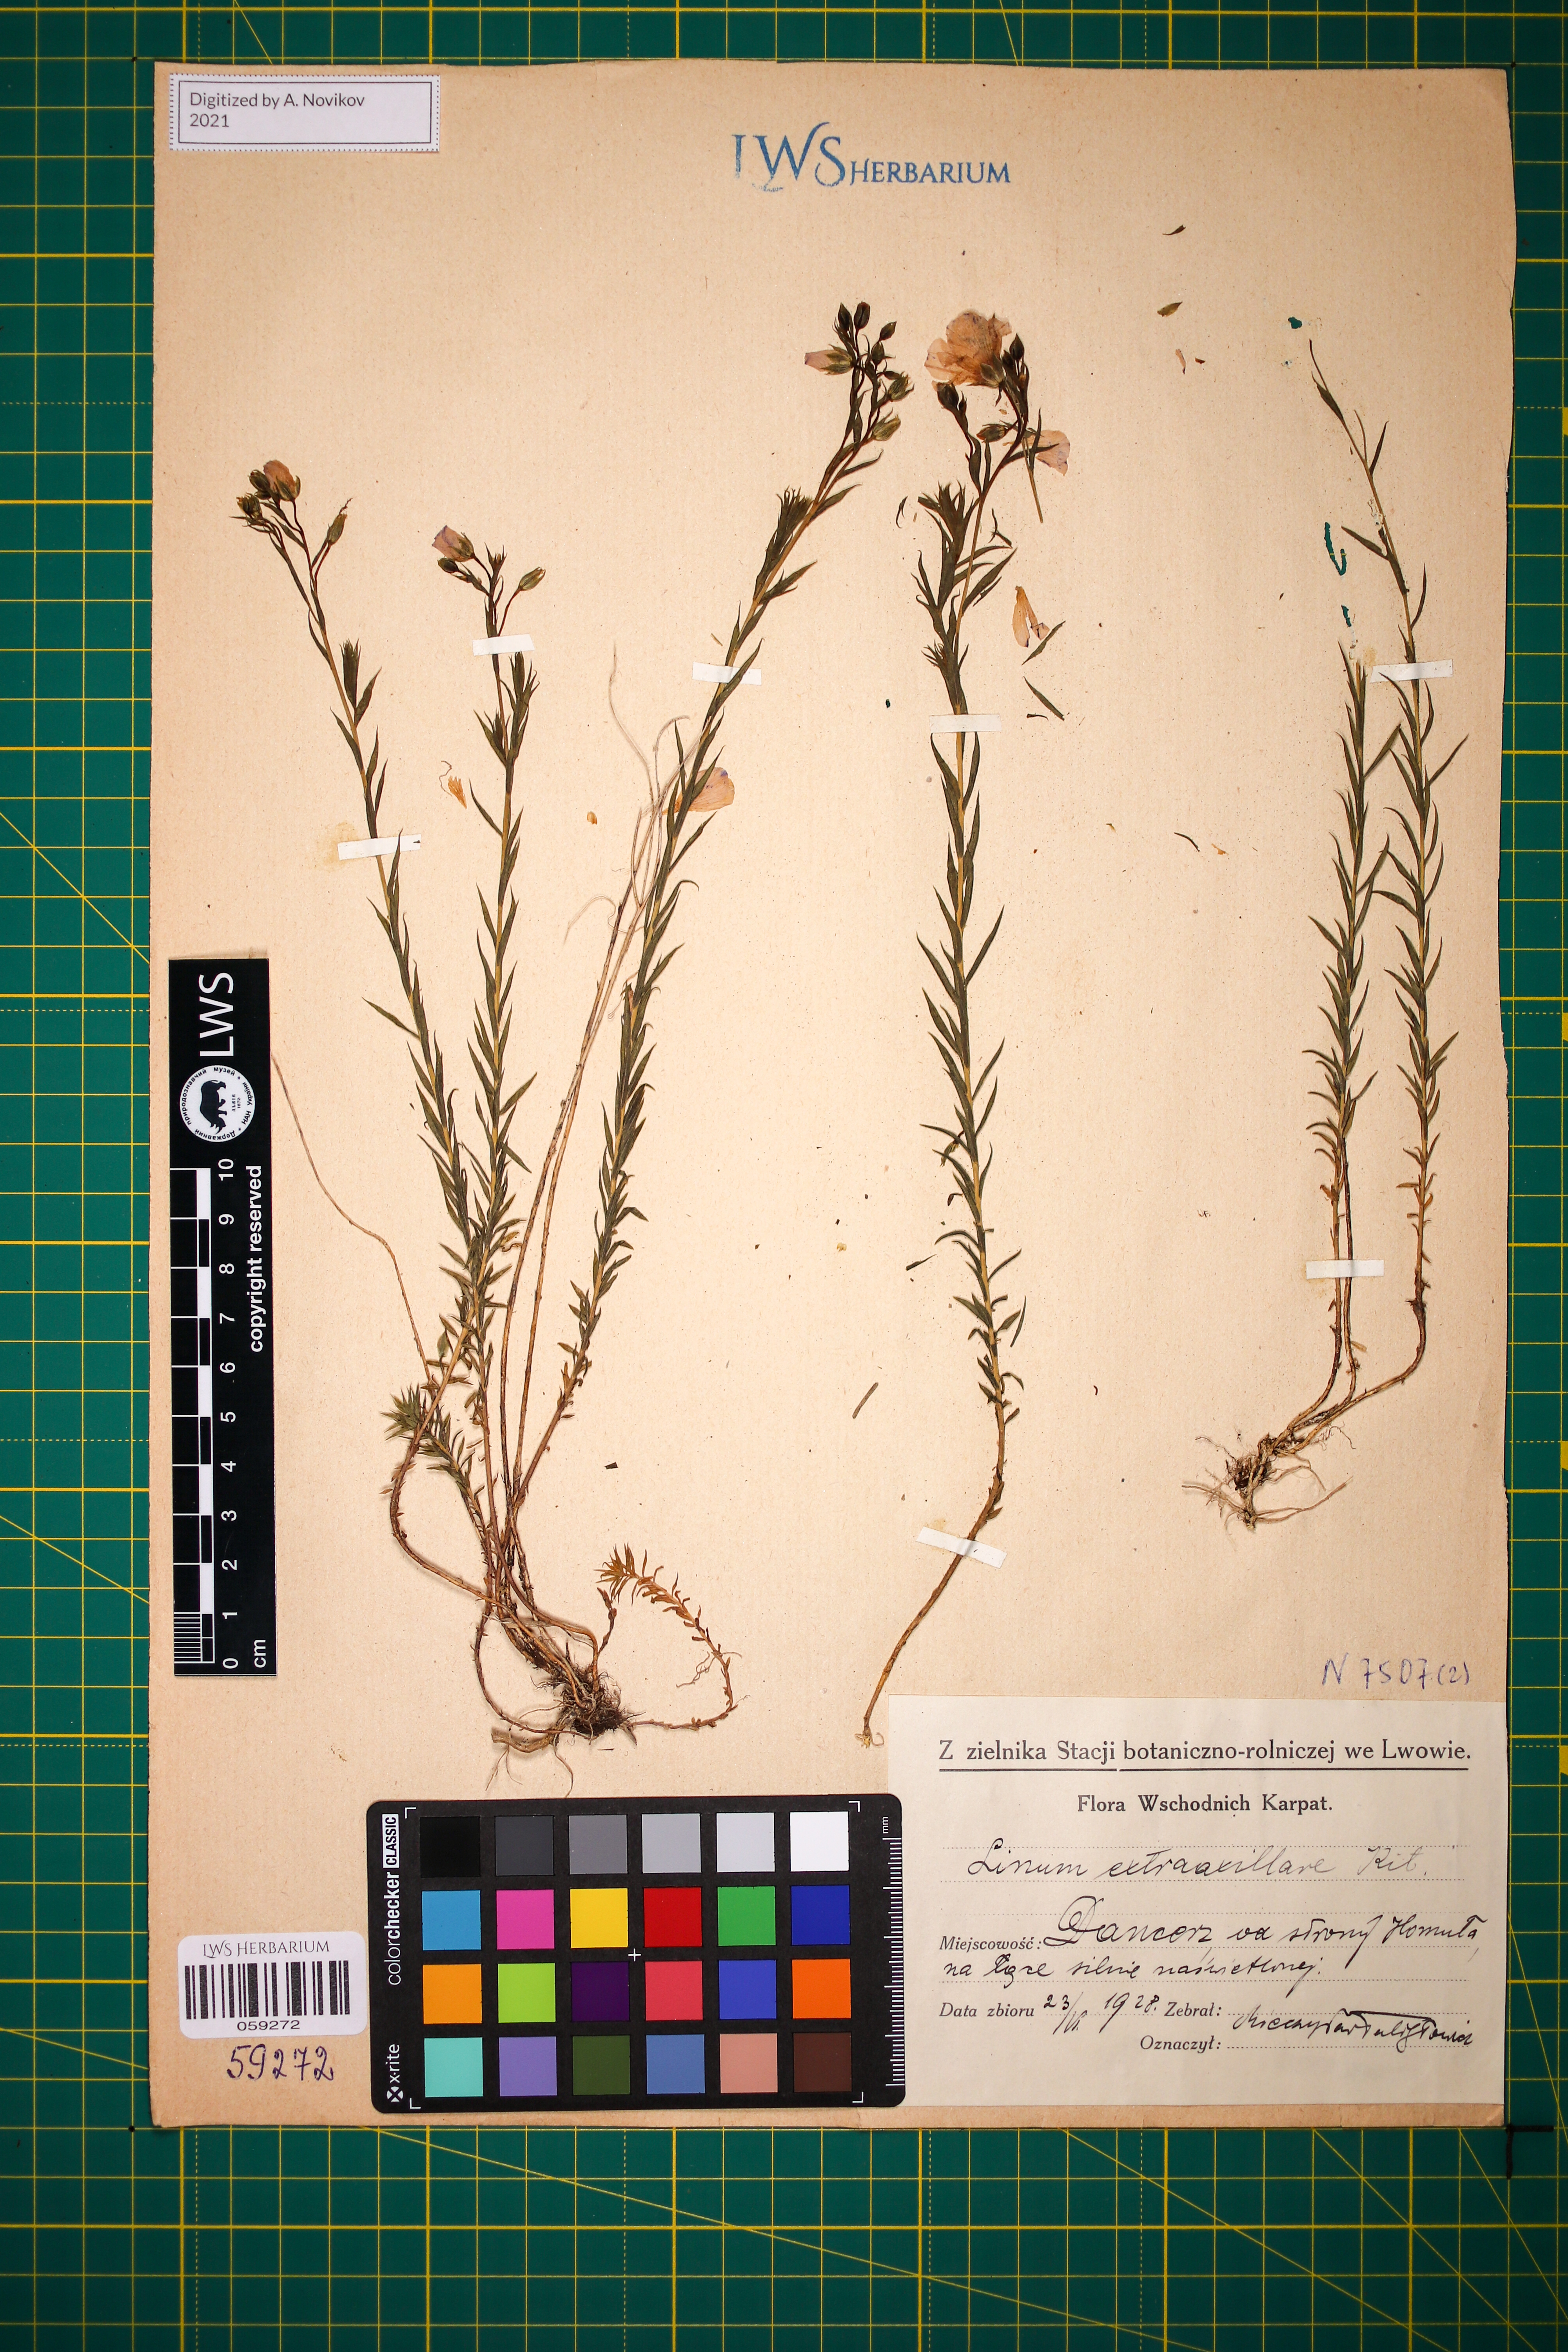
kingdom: Plantae
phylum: Tracheophyta
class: Magnoliopsida
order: Malpighiales
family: Linaceae
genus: Linum
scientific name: Linum perenne
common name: Blue flax
